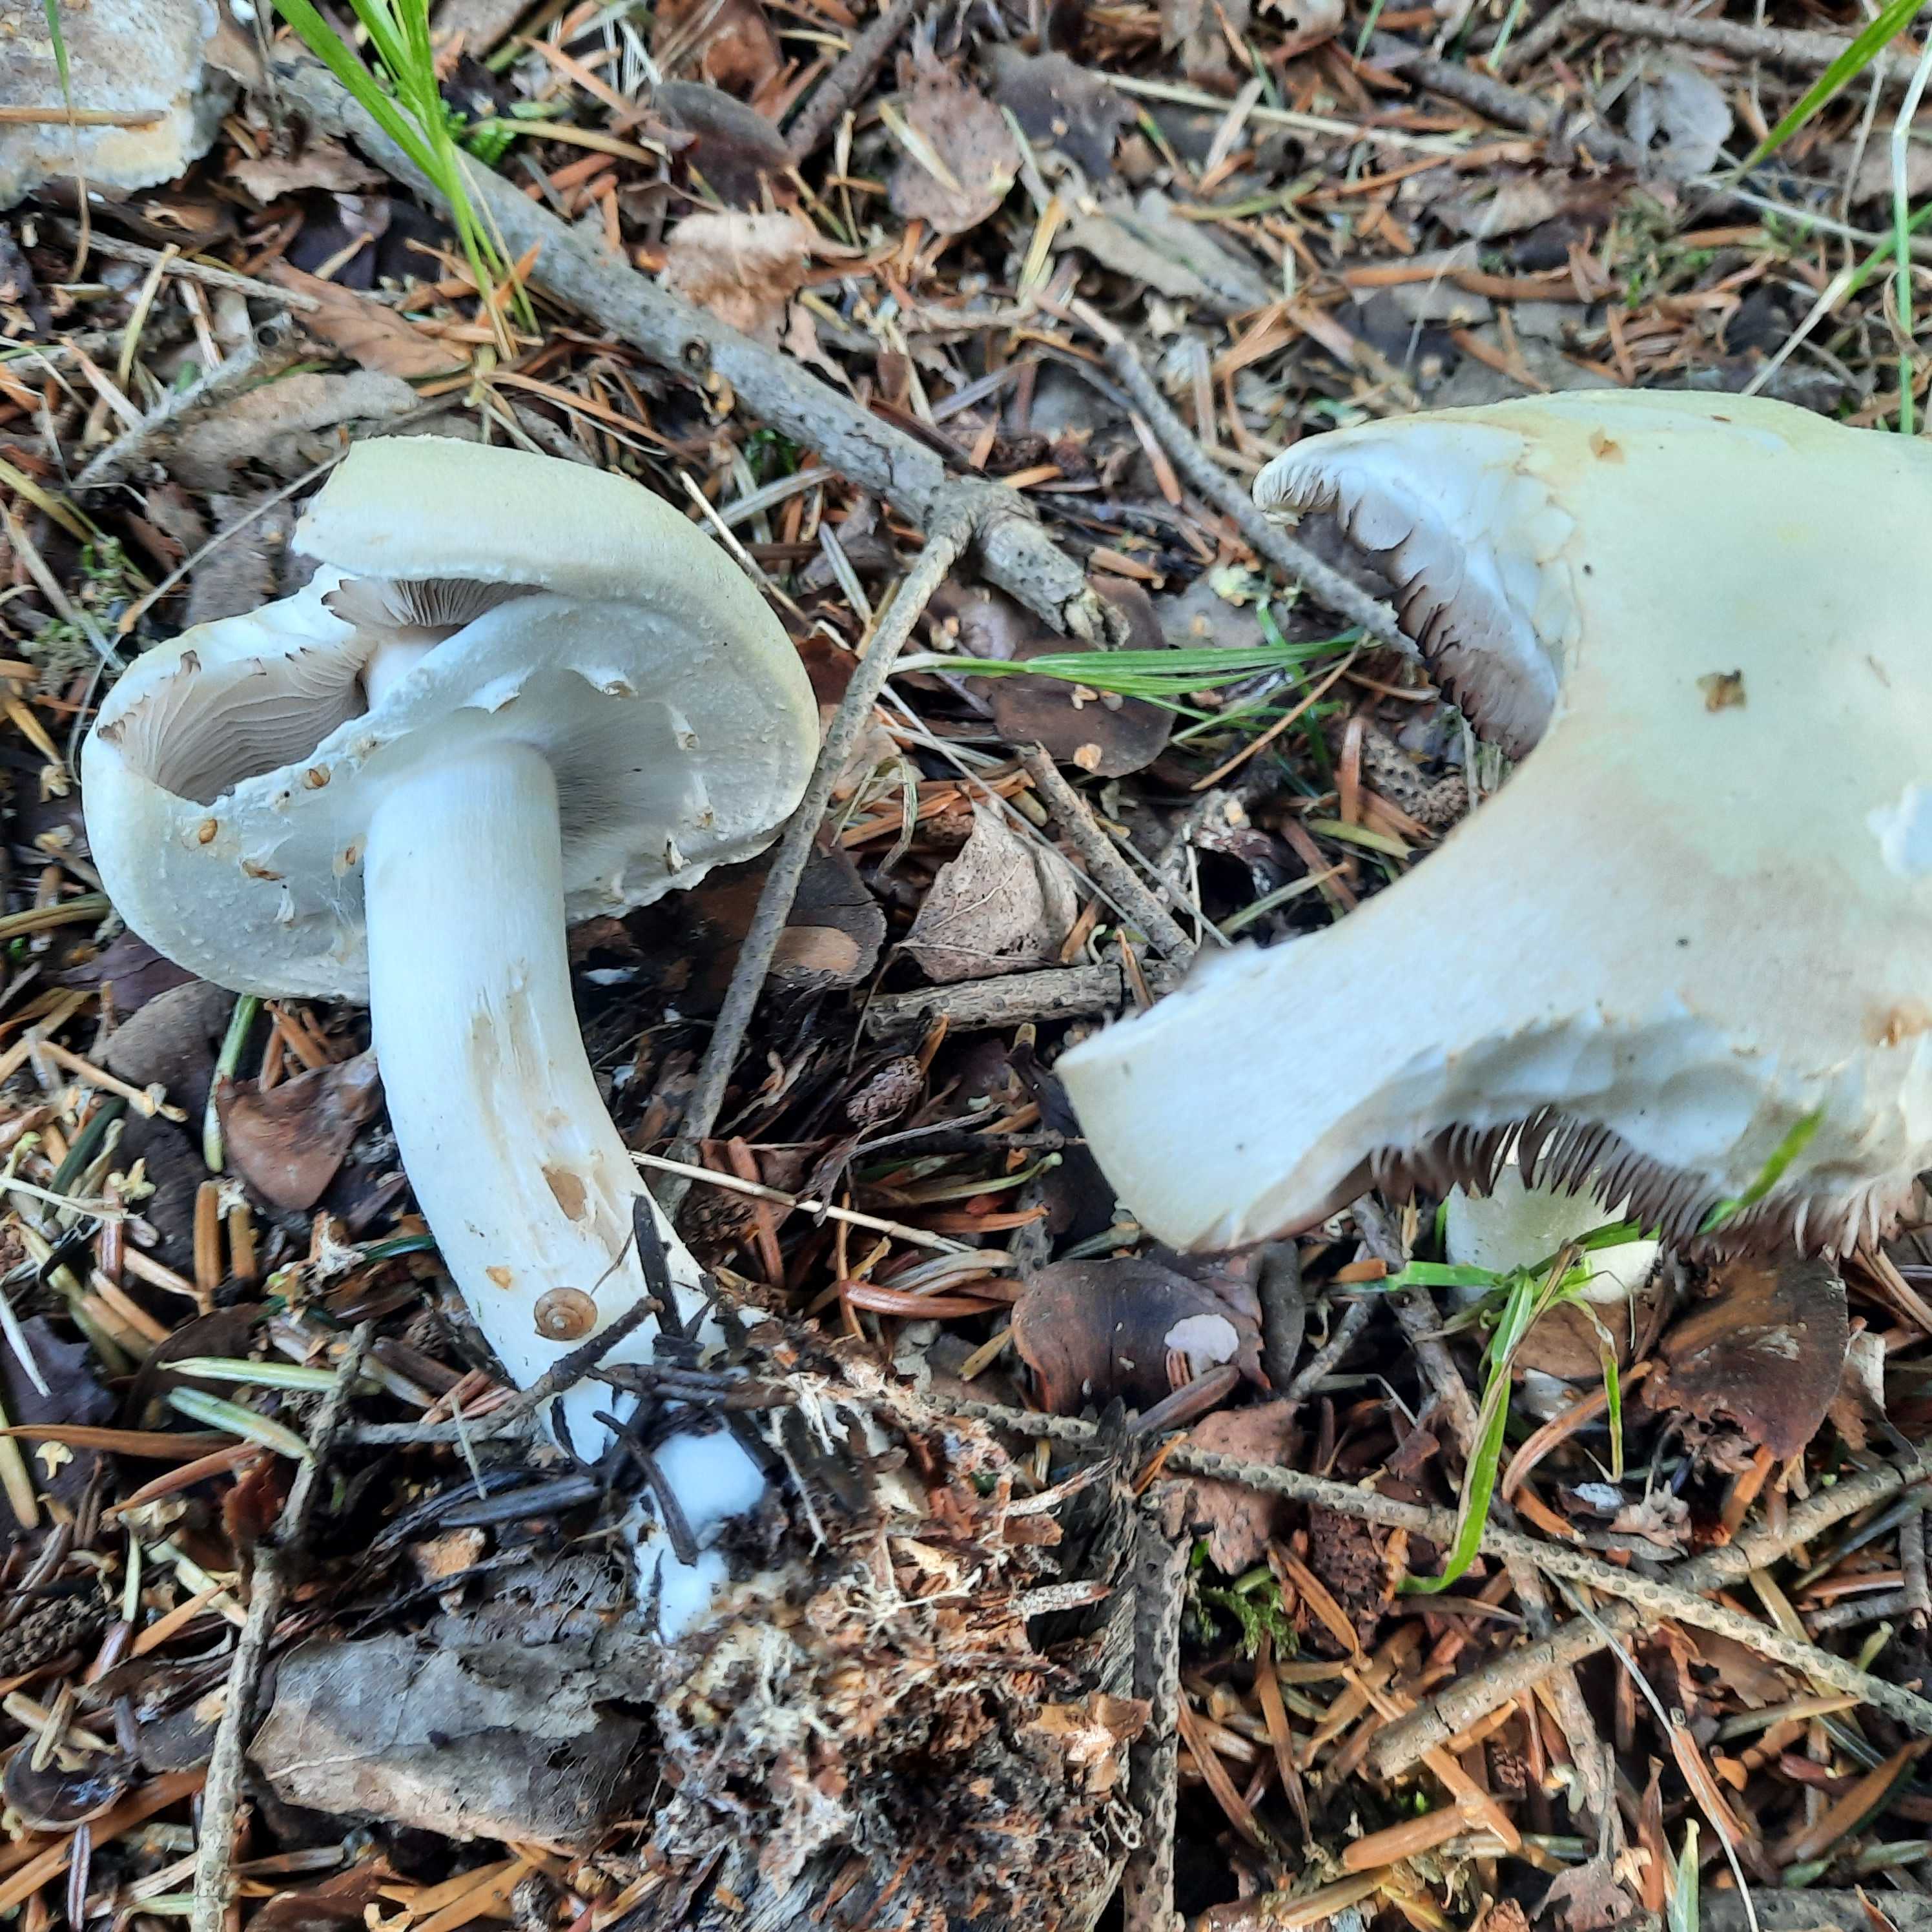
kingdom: Fungi
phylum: Basidiomycota
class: Agaricomycetes
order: Agaricales
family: Agaricaceae
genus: Agaricus
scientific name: Agaricus
